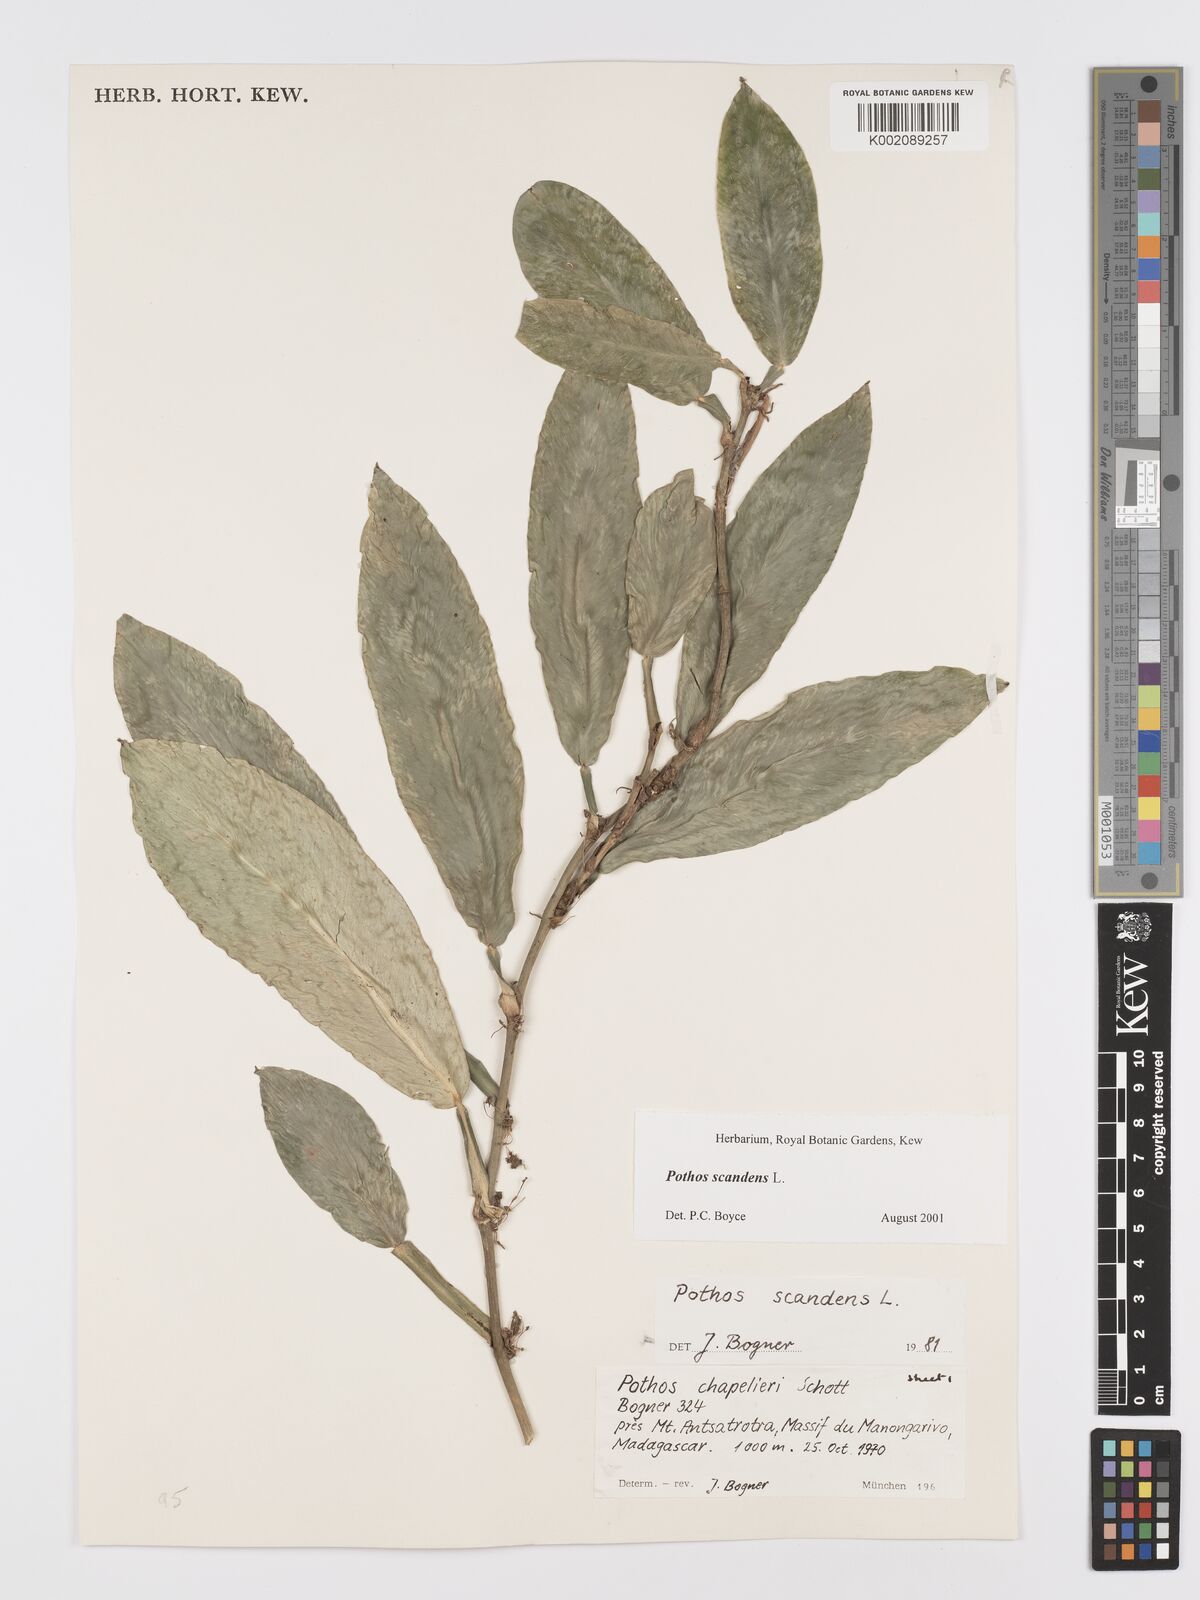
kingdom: Plantae
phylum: Tracheophyta
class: Liliopsida
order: Alismatales
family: Araceae
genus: Pothos
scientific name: Pothos scandens
